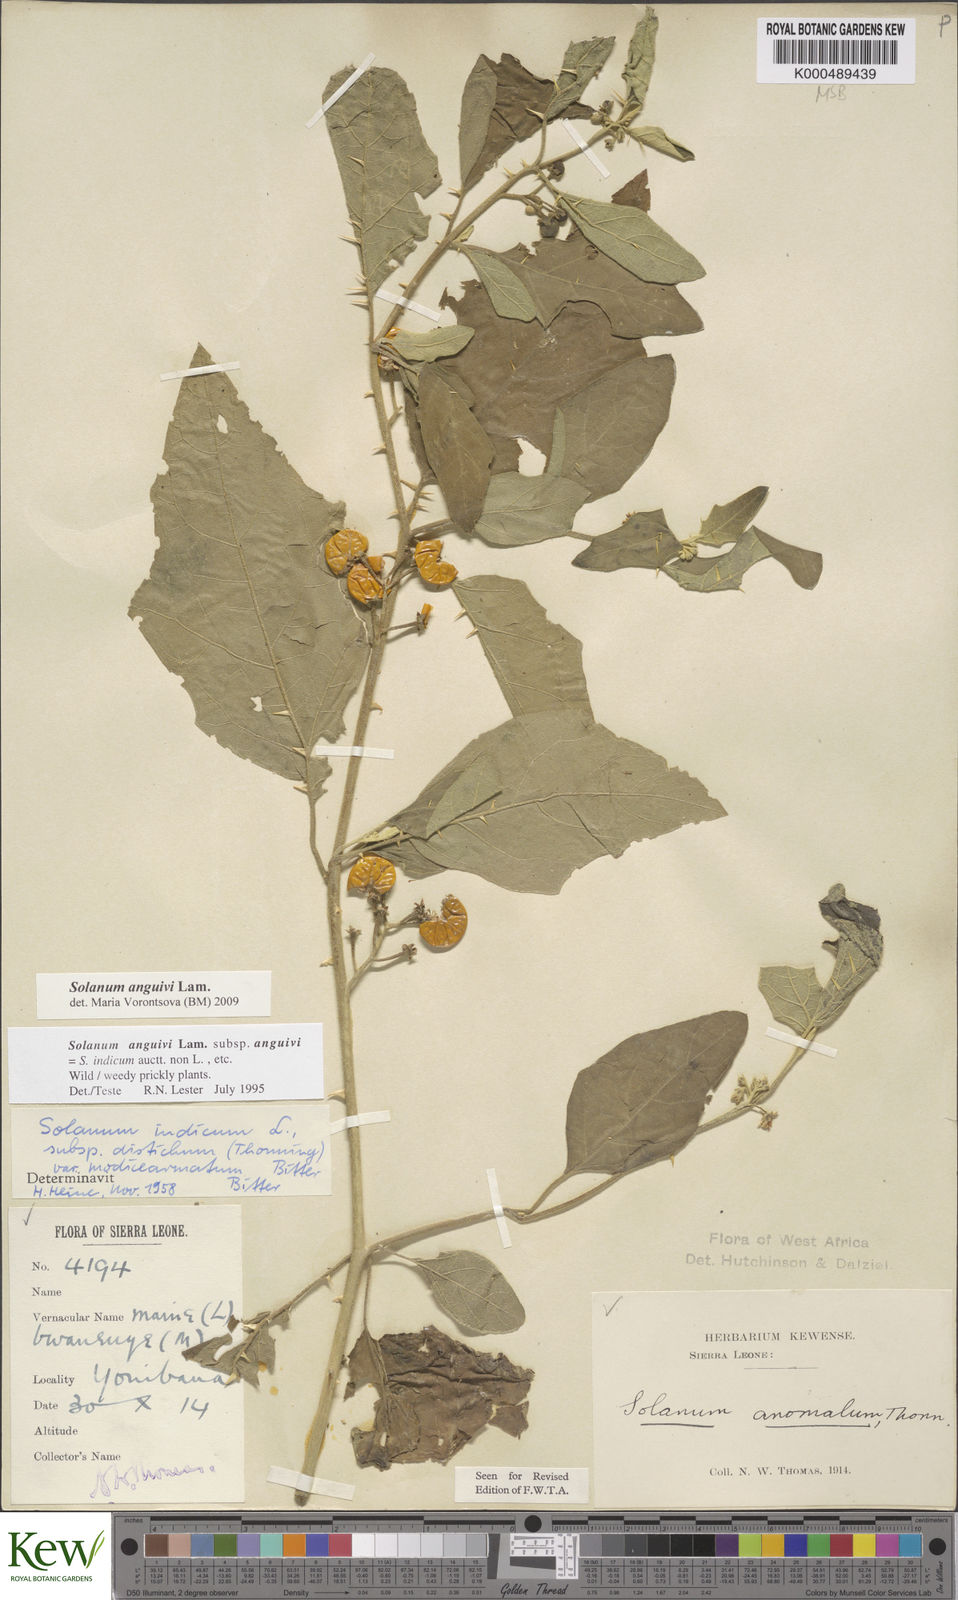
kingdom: Plantae
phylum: Tracheophyta
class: Magnoliopsida
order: Solanales
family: Solanaceae
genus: Solanum
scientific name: Solanum anguivi
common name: Forest bitterberry
